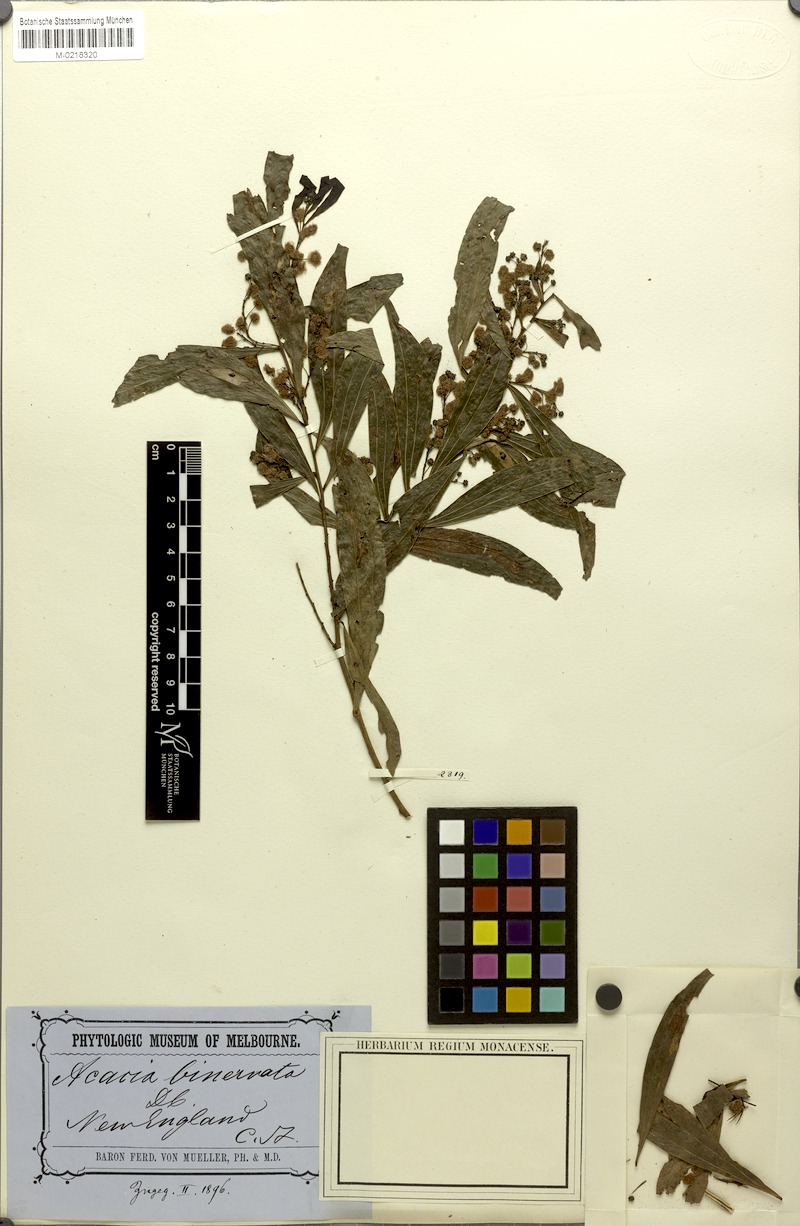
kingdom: Plantae
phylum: Tracheophyta
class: Magnoliopsida
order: Fabales
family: Fabaceae
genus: Acacia
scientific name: Acacia binervata
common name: Two-veined hickory
